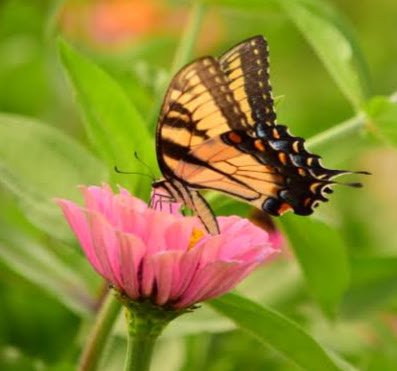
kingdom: Animalia
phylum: Arthropoda
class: Insecta
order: Lepidoptera
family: Papilionidae
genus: Papilio
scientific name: Papilio
